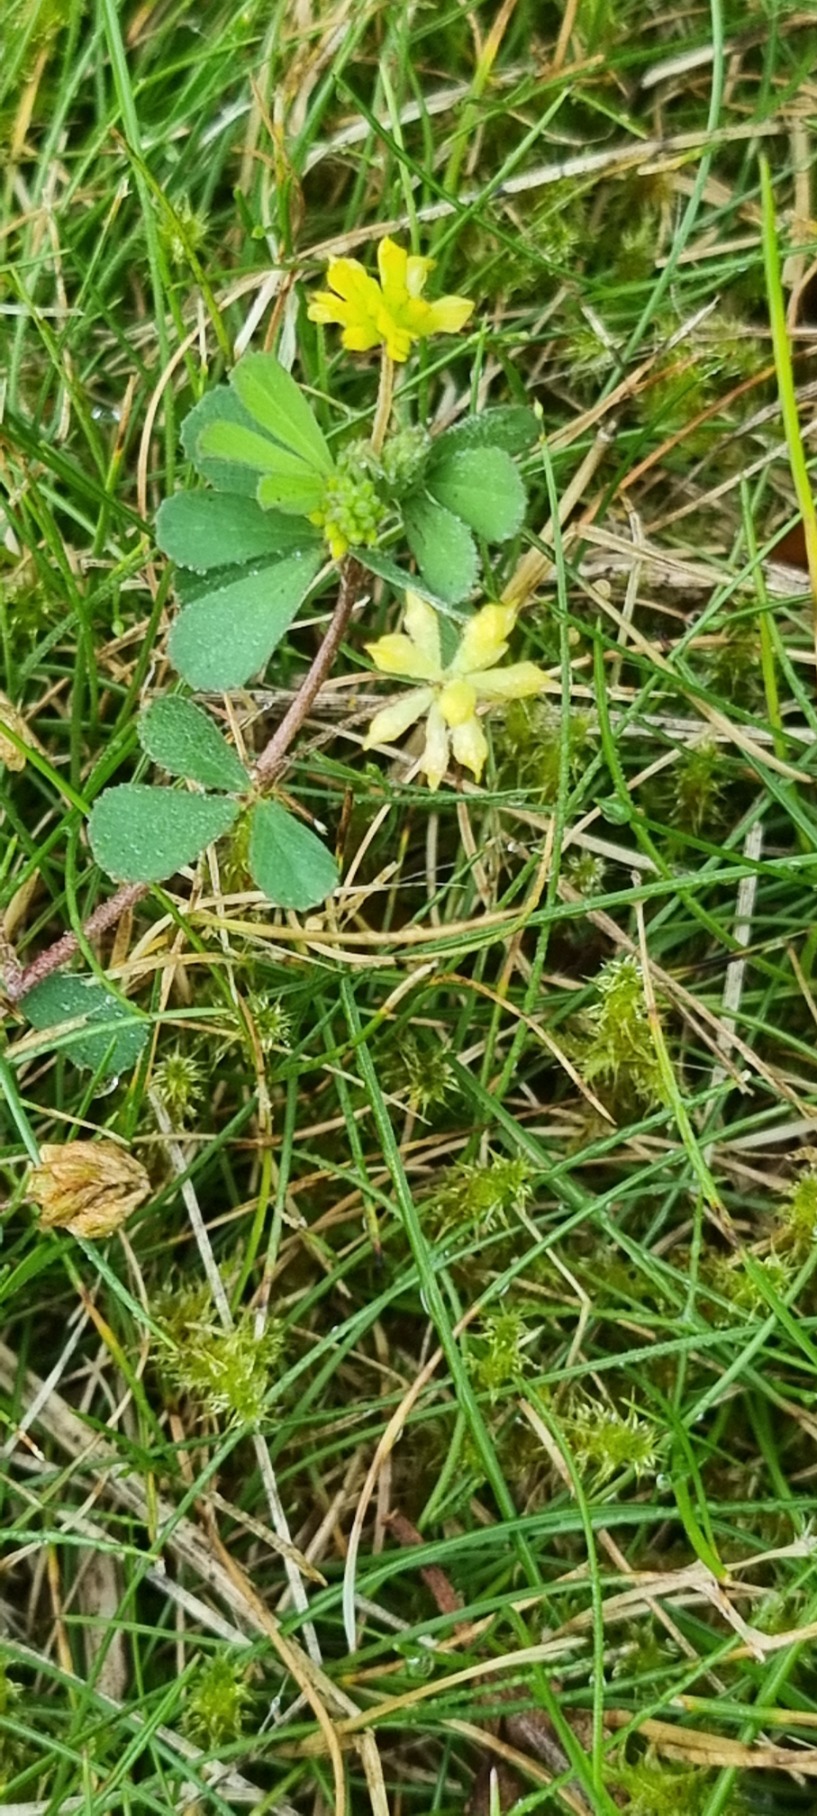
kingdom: Plantae
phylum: Tracheophyta
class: Magnoliopsida
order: Fabales
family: Fabaceae
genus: Trifolium
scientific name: Trifolium dubium
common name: Fin kløver
